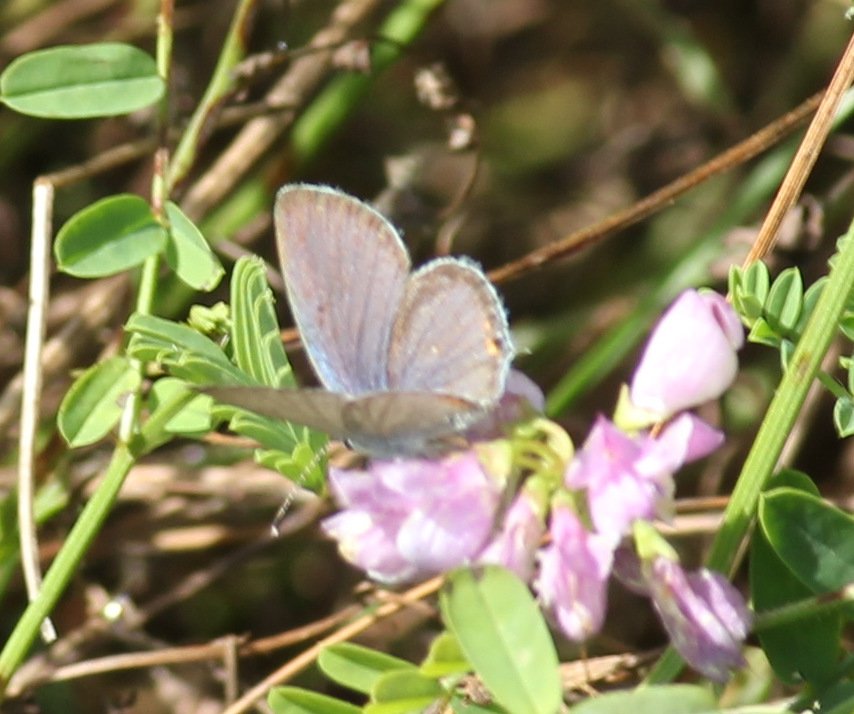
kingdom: Animalia
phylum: Arthropoda
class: Insecta
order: Lepidoptera
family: Lycaenidae
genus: Elkalyce
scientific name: Elkalyce comyntas
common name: Eastern Tailed-Blue
